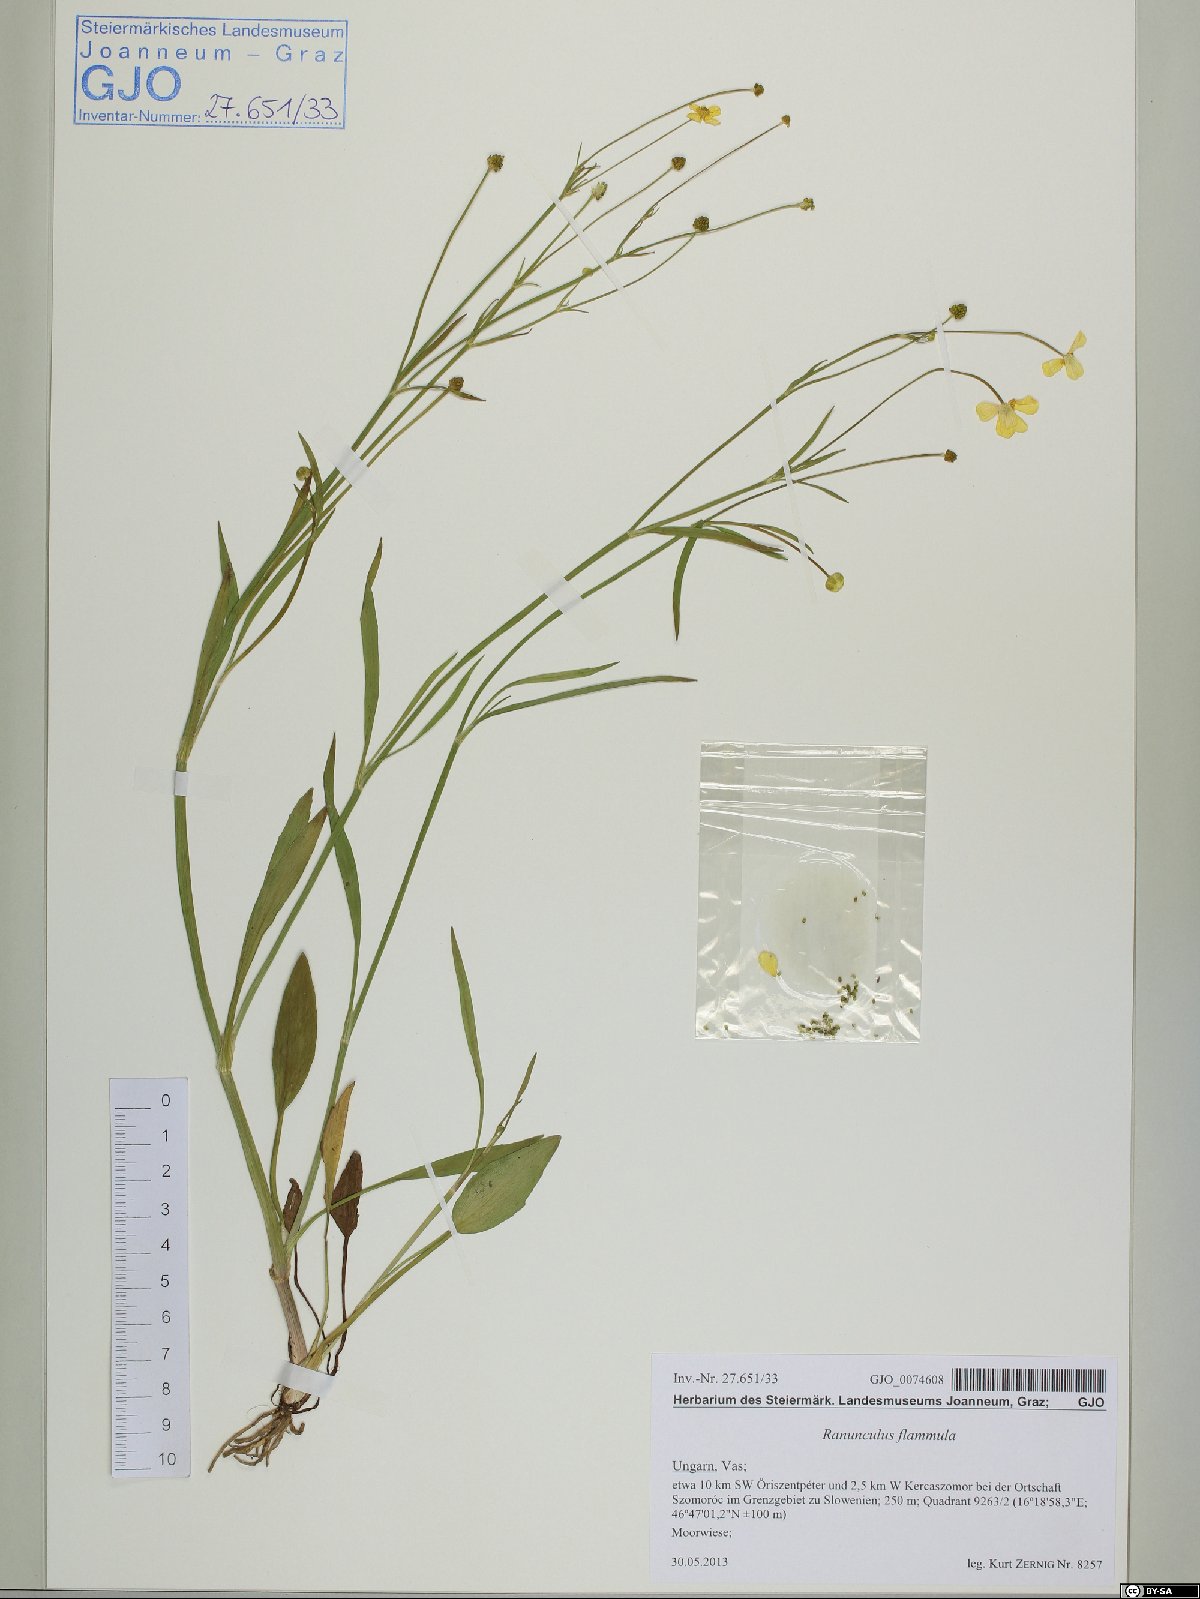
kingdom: Plantae
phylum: Tracheophyta
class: Magnoliopsida
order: Ranunculales
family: Ranunculaceae
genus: Ranunculus
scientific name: Ranunculus flammula
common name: Lesser spearwort
